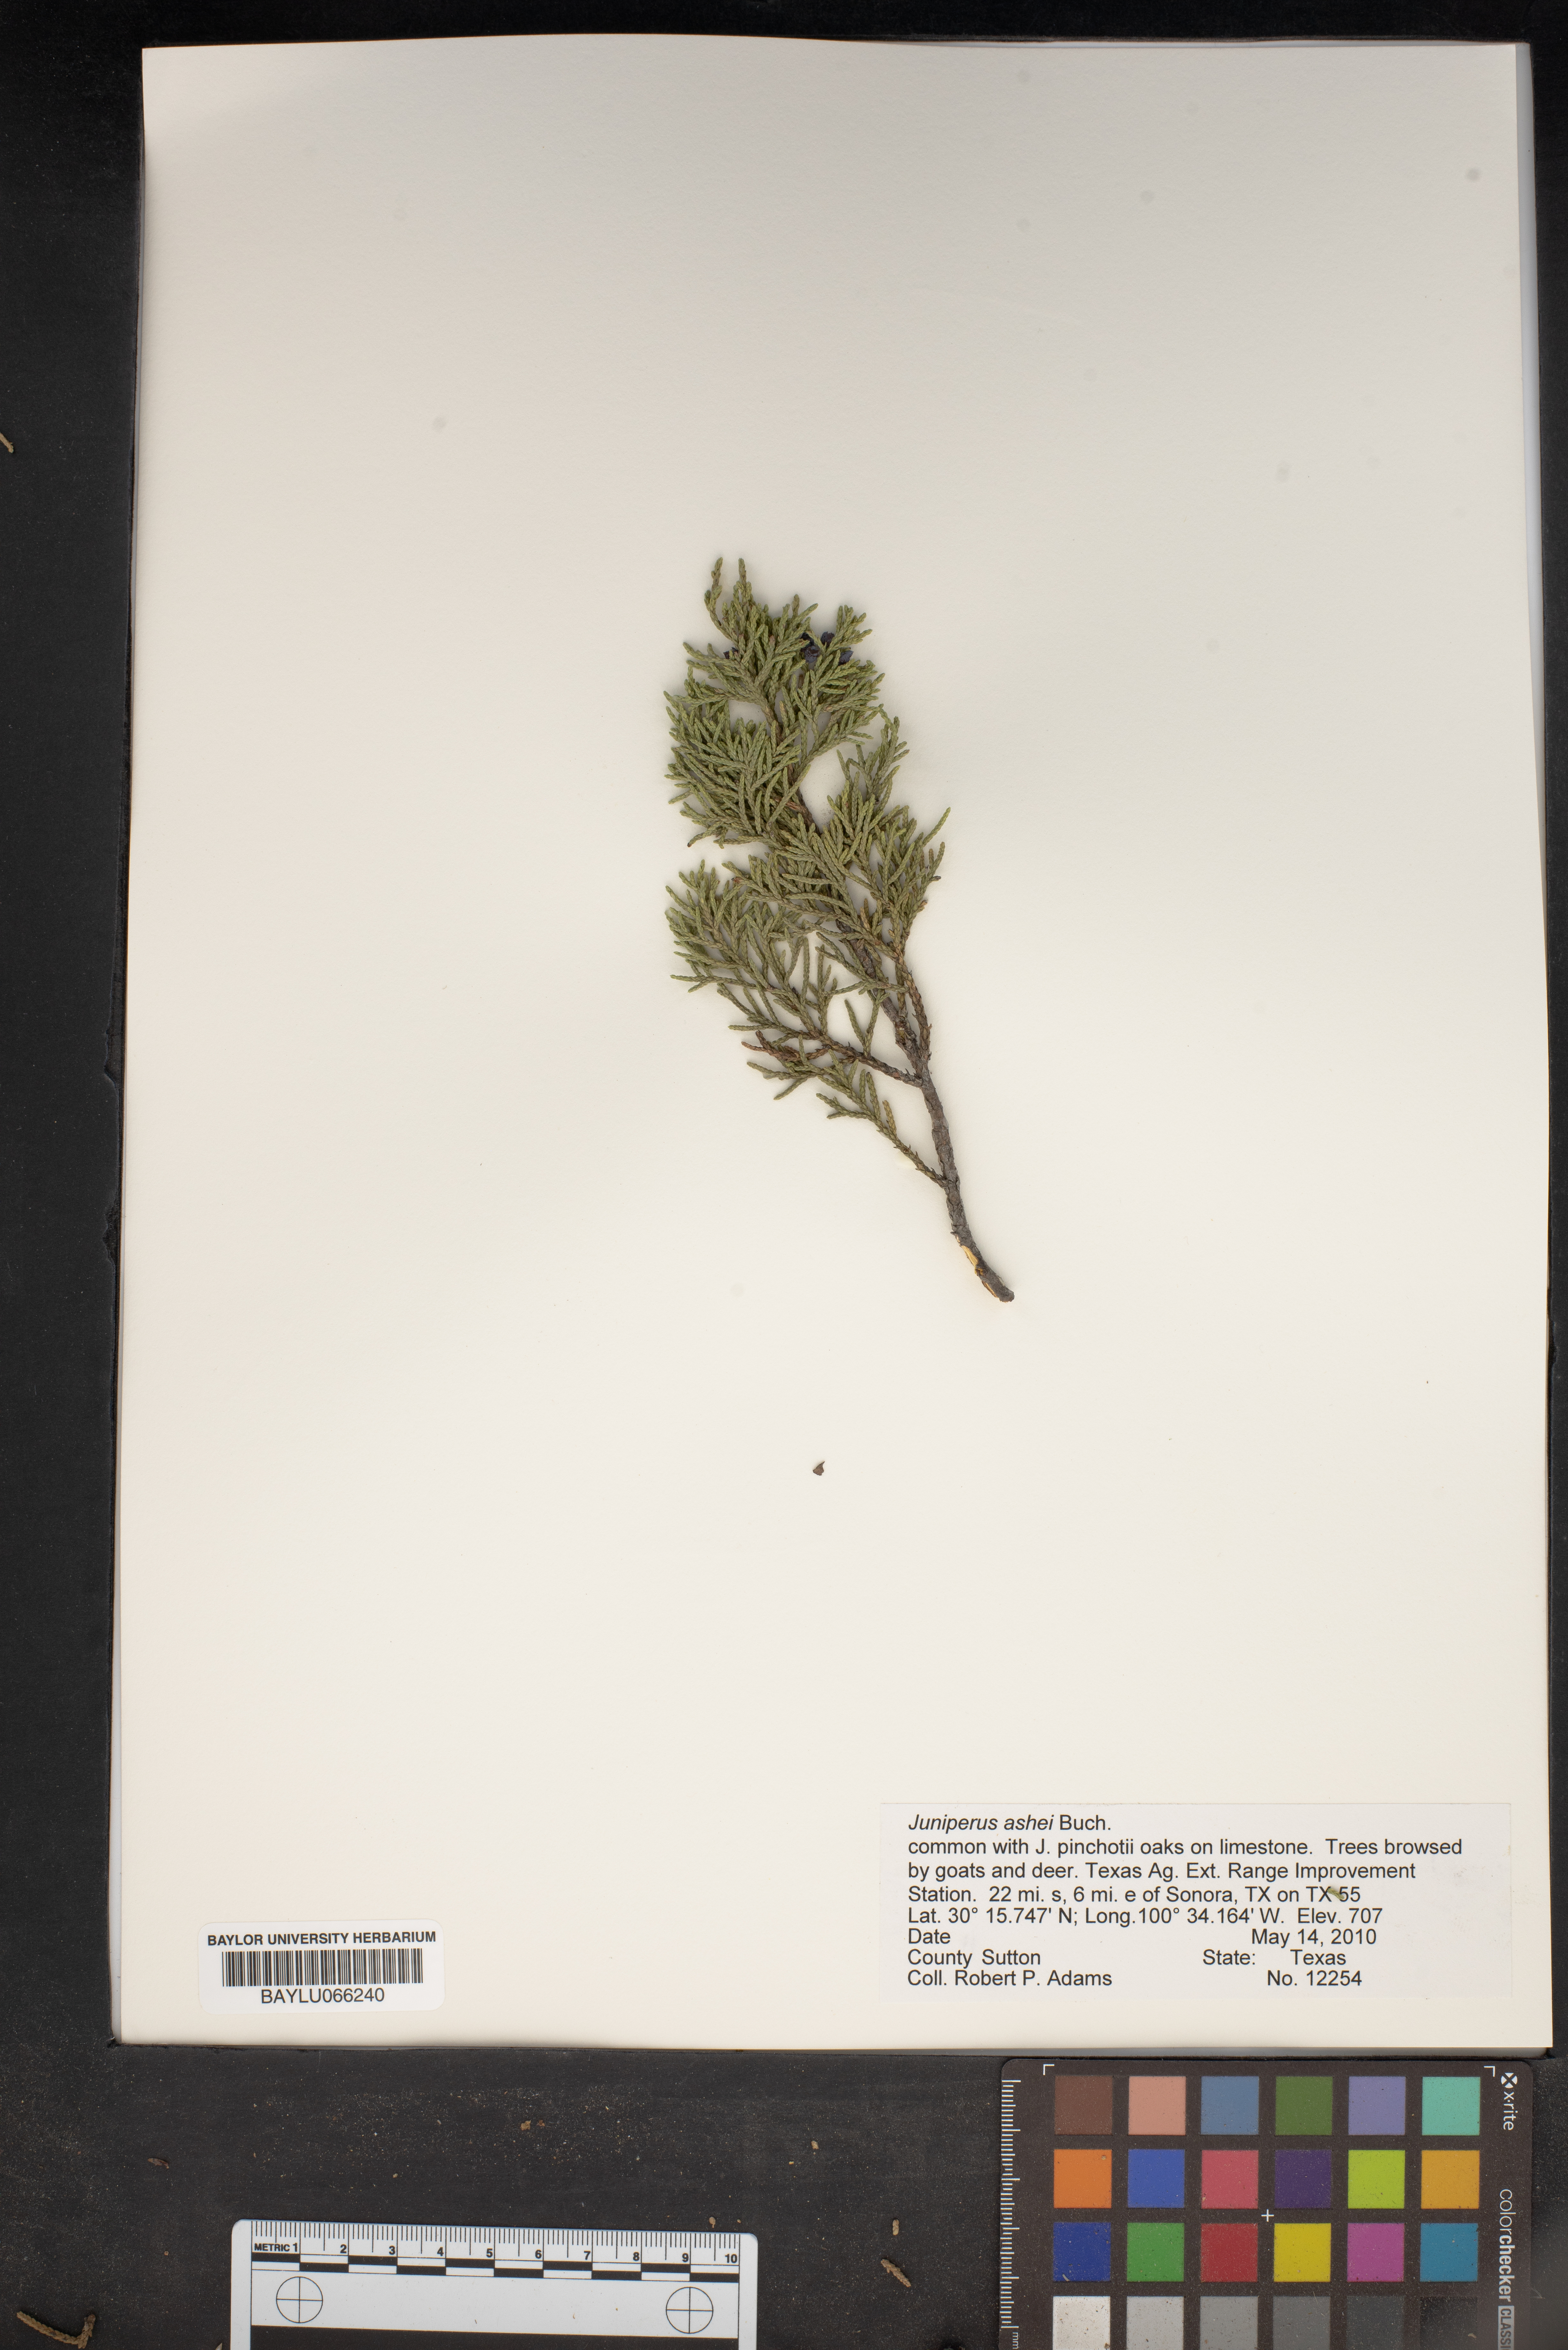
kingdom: Plantae
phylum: Tracheophyta
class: Pinopsida
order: Pinales
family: Cupressaceae
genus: Juniperus
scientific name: Juniperus ashei
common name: Mexican juniper
